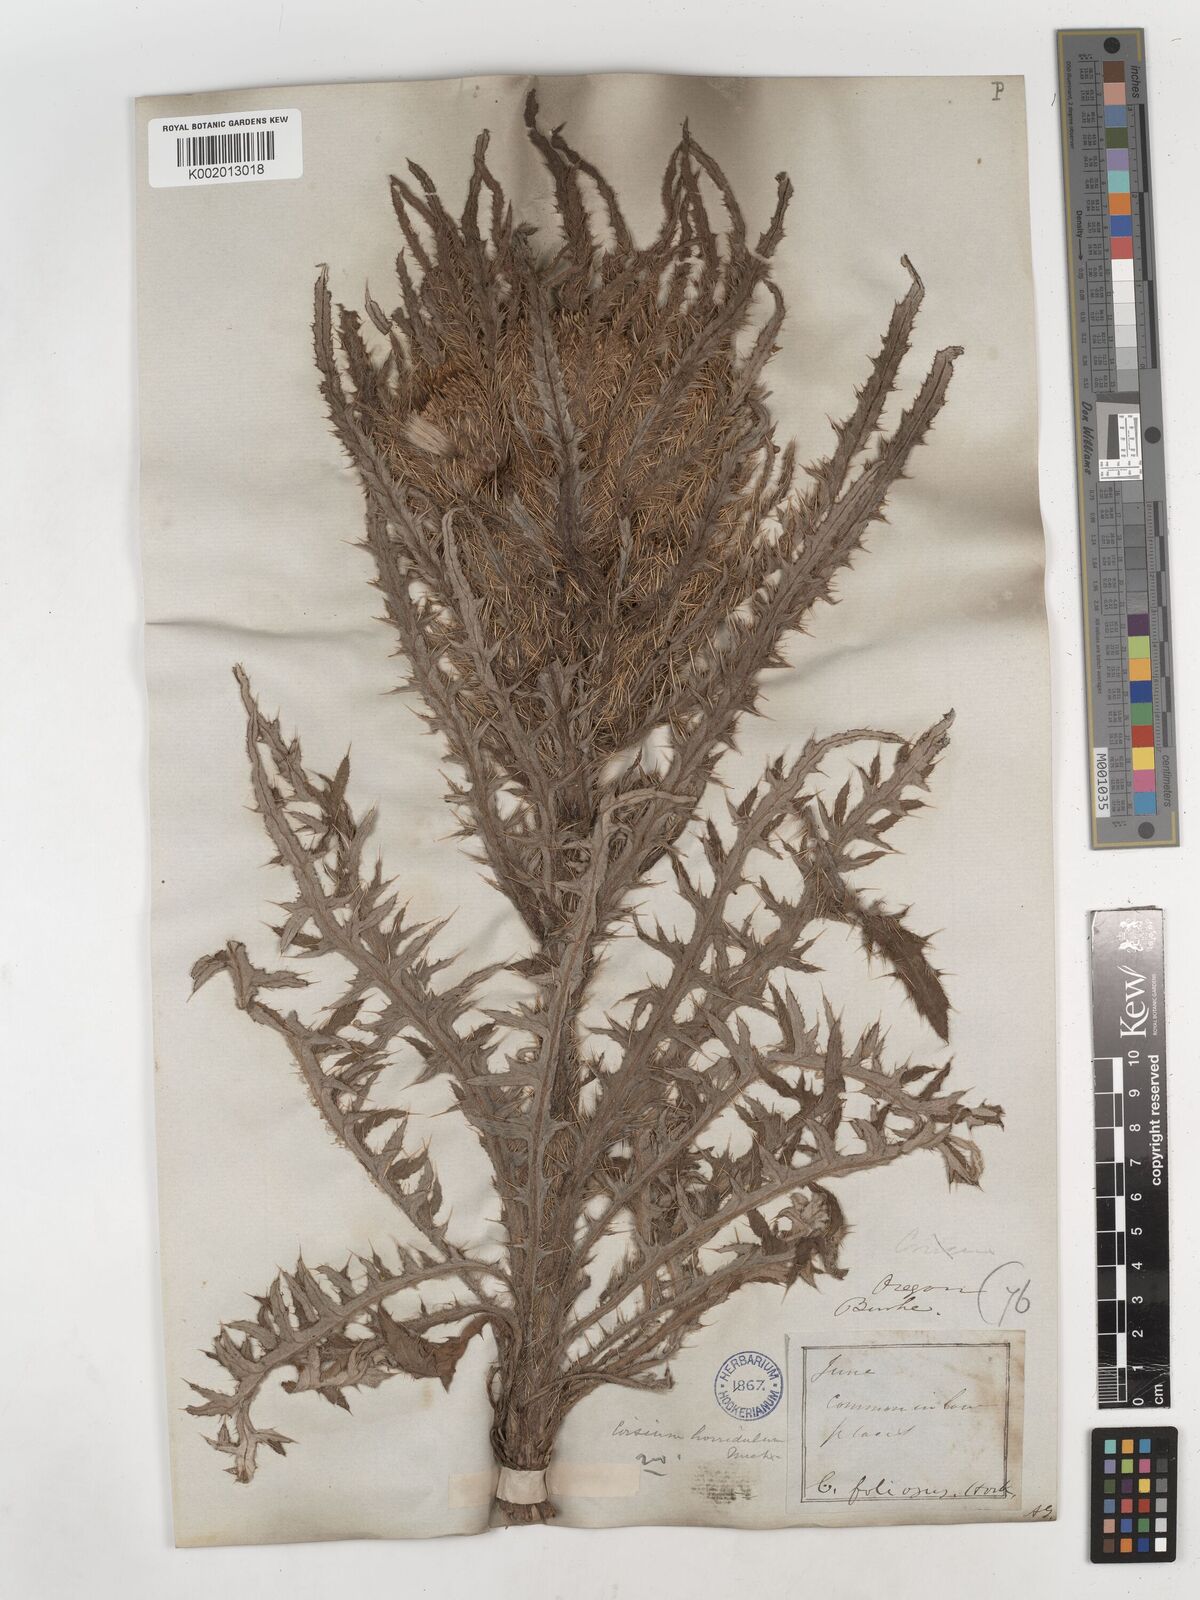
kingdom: Plantae
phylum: Tracheophyta
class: Magnoliopsida
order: Asterales
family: Asteraceae
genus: Cirsium
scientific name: Cirsium foliosum
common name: Elk thistle
